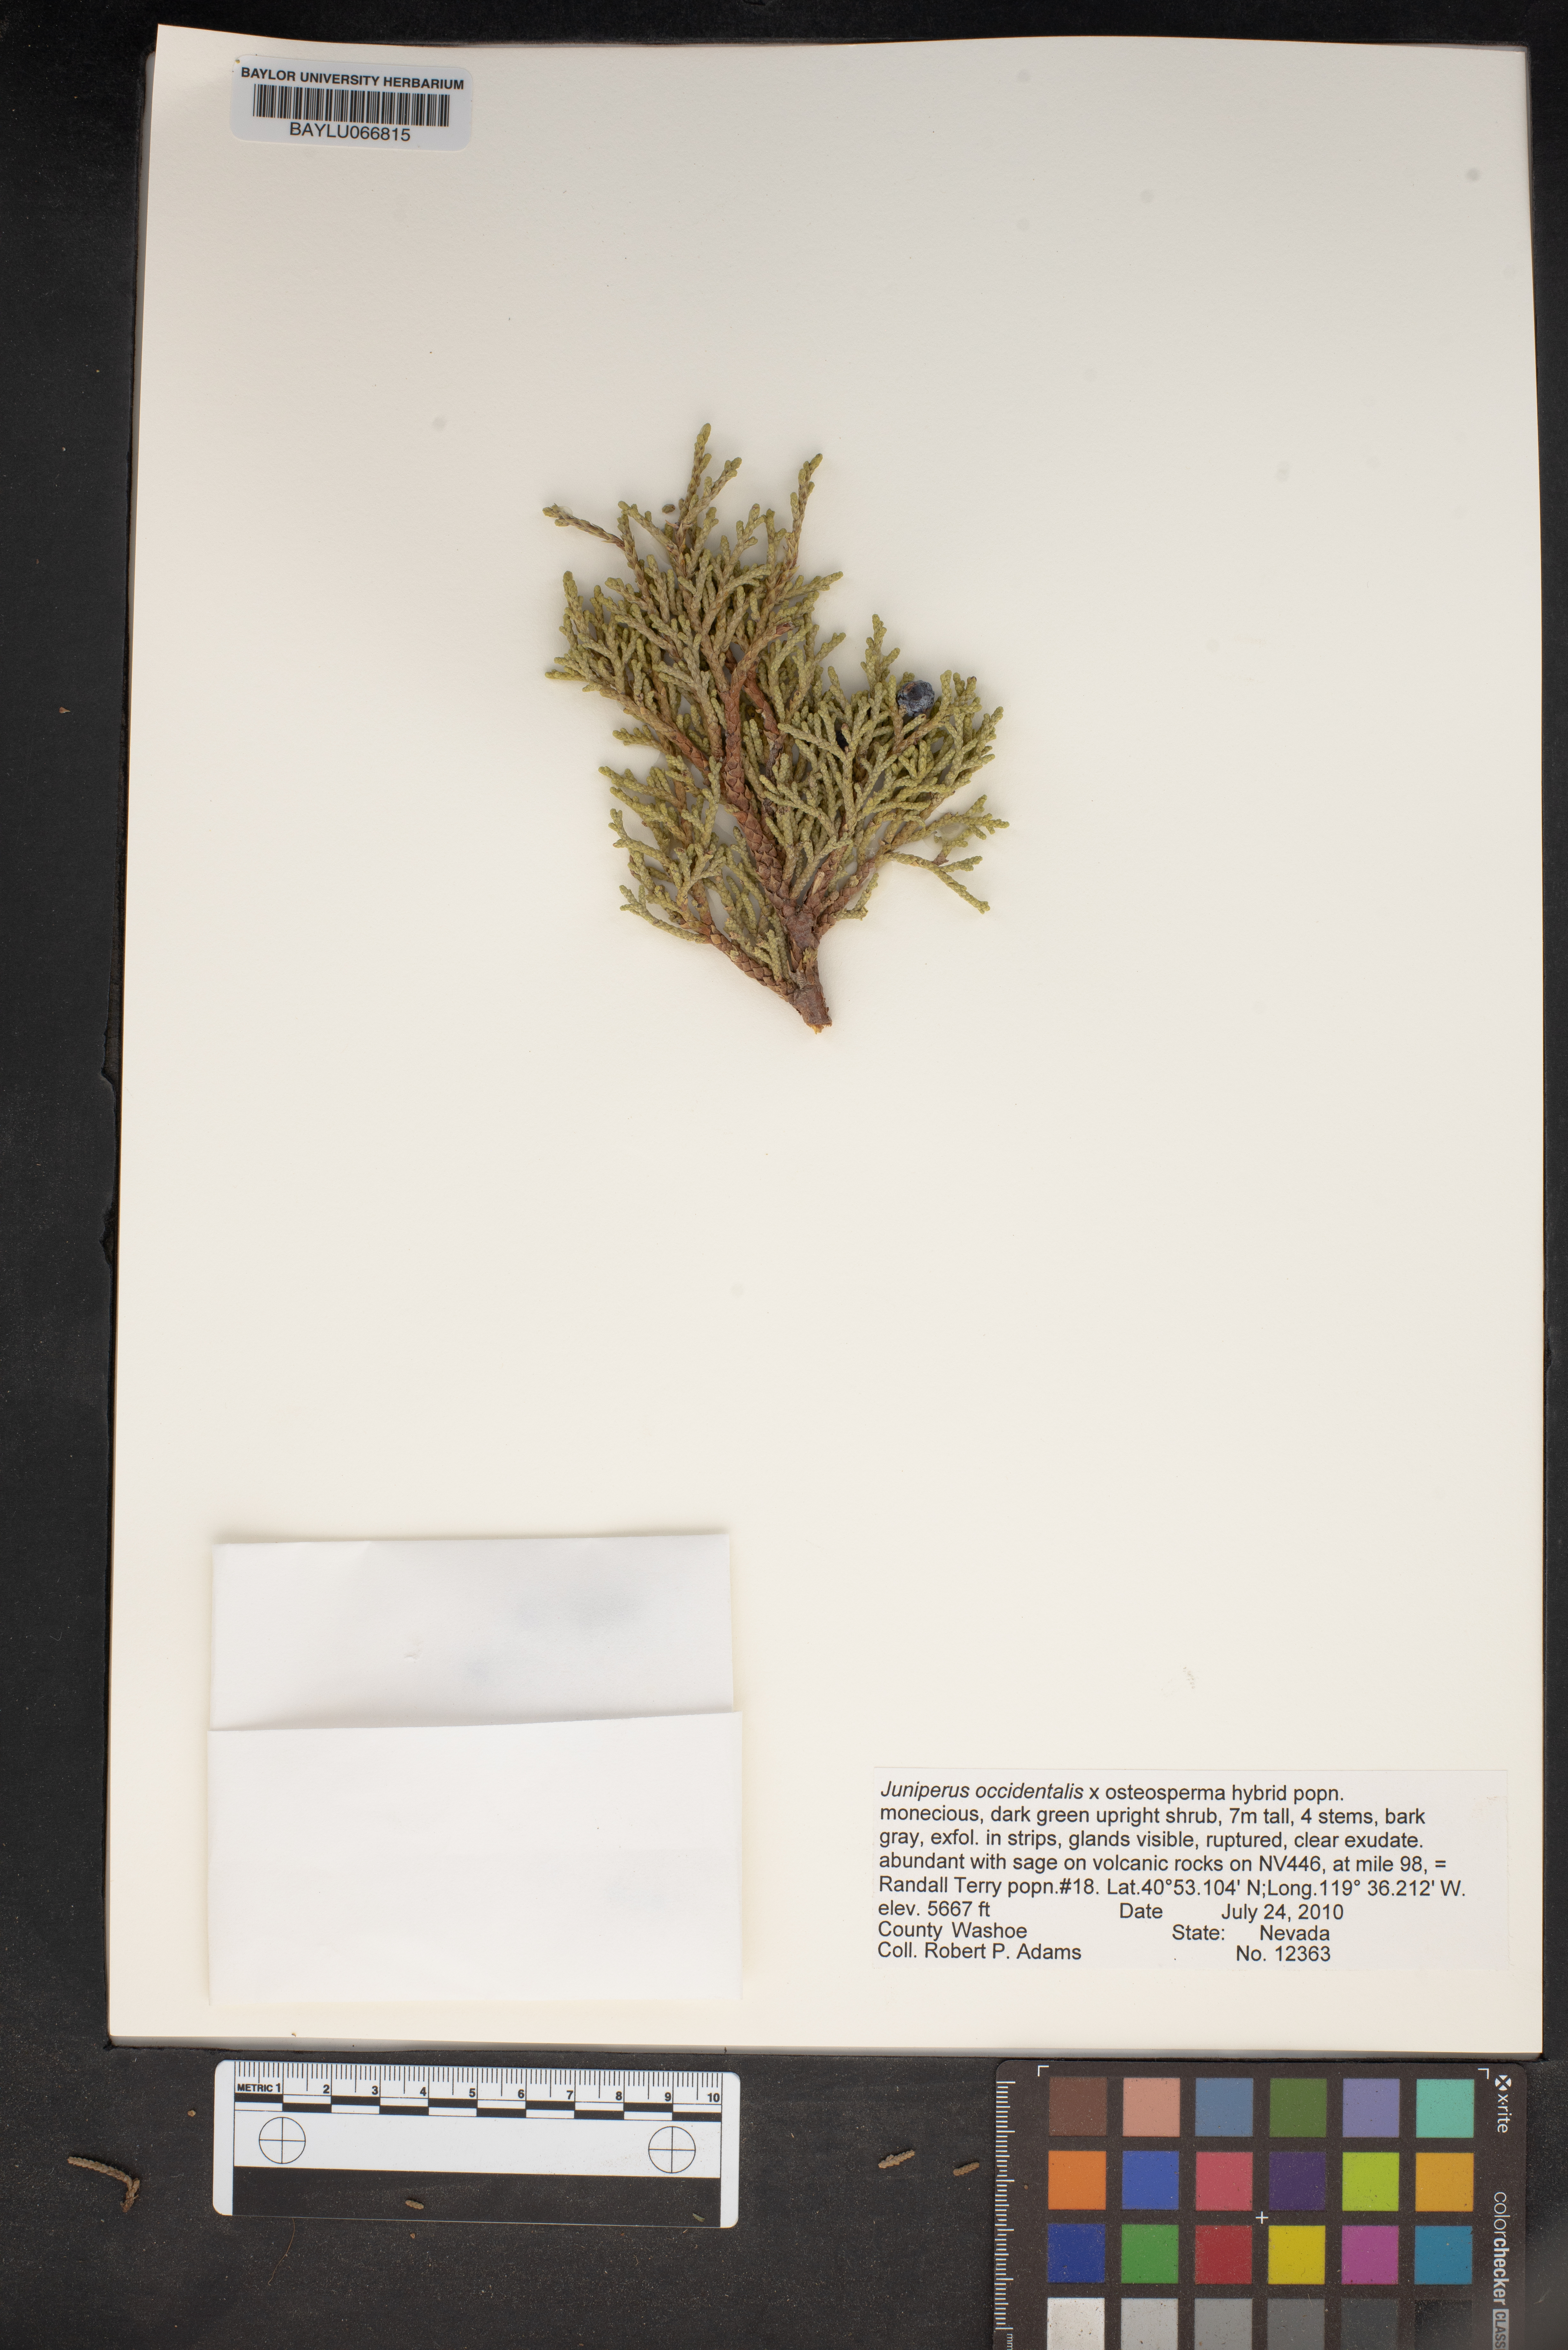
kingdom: Plantae
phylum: Tracheophyta
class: Pinopsida
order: Pinales
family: Cupressaceae
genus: Juniperus
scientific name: Juniperus occidentalis
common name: Western juniper
